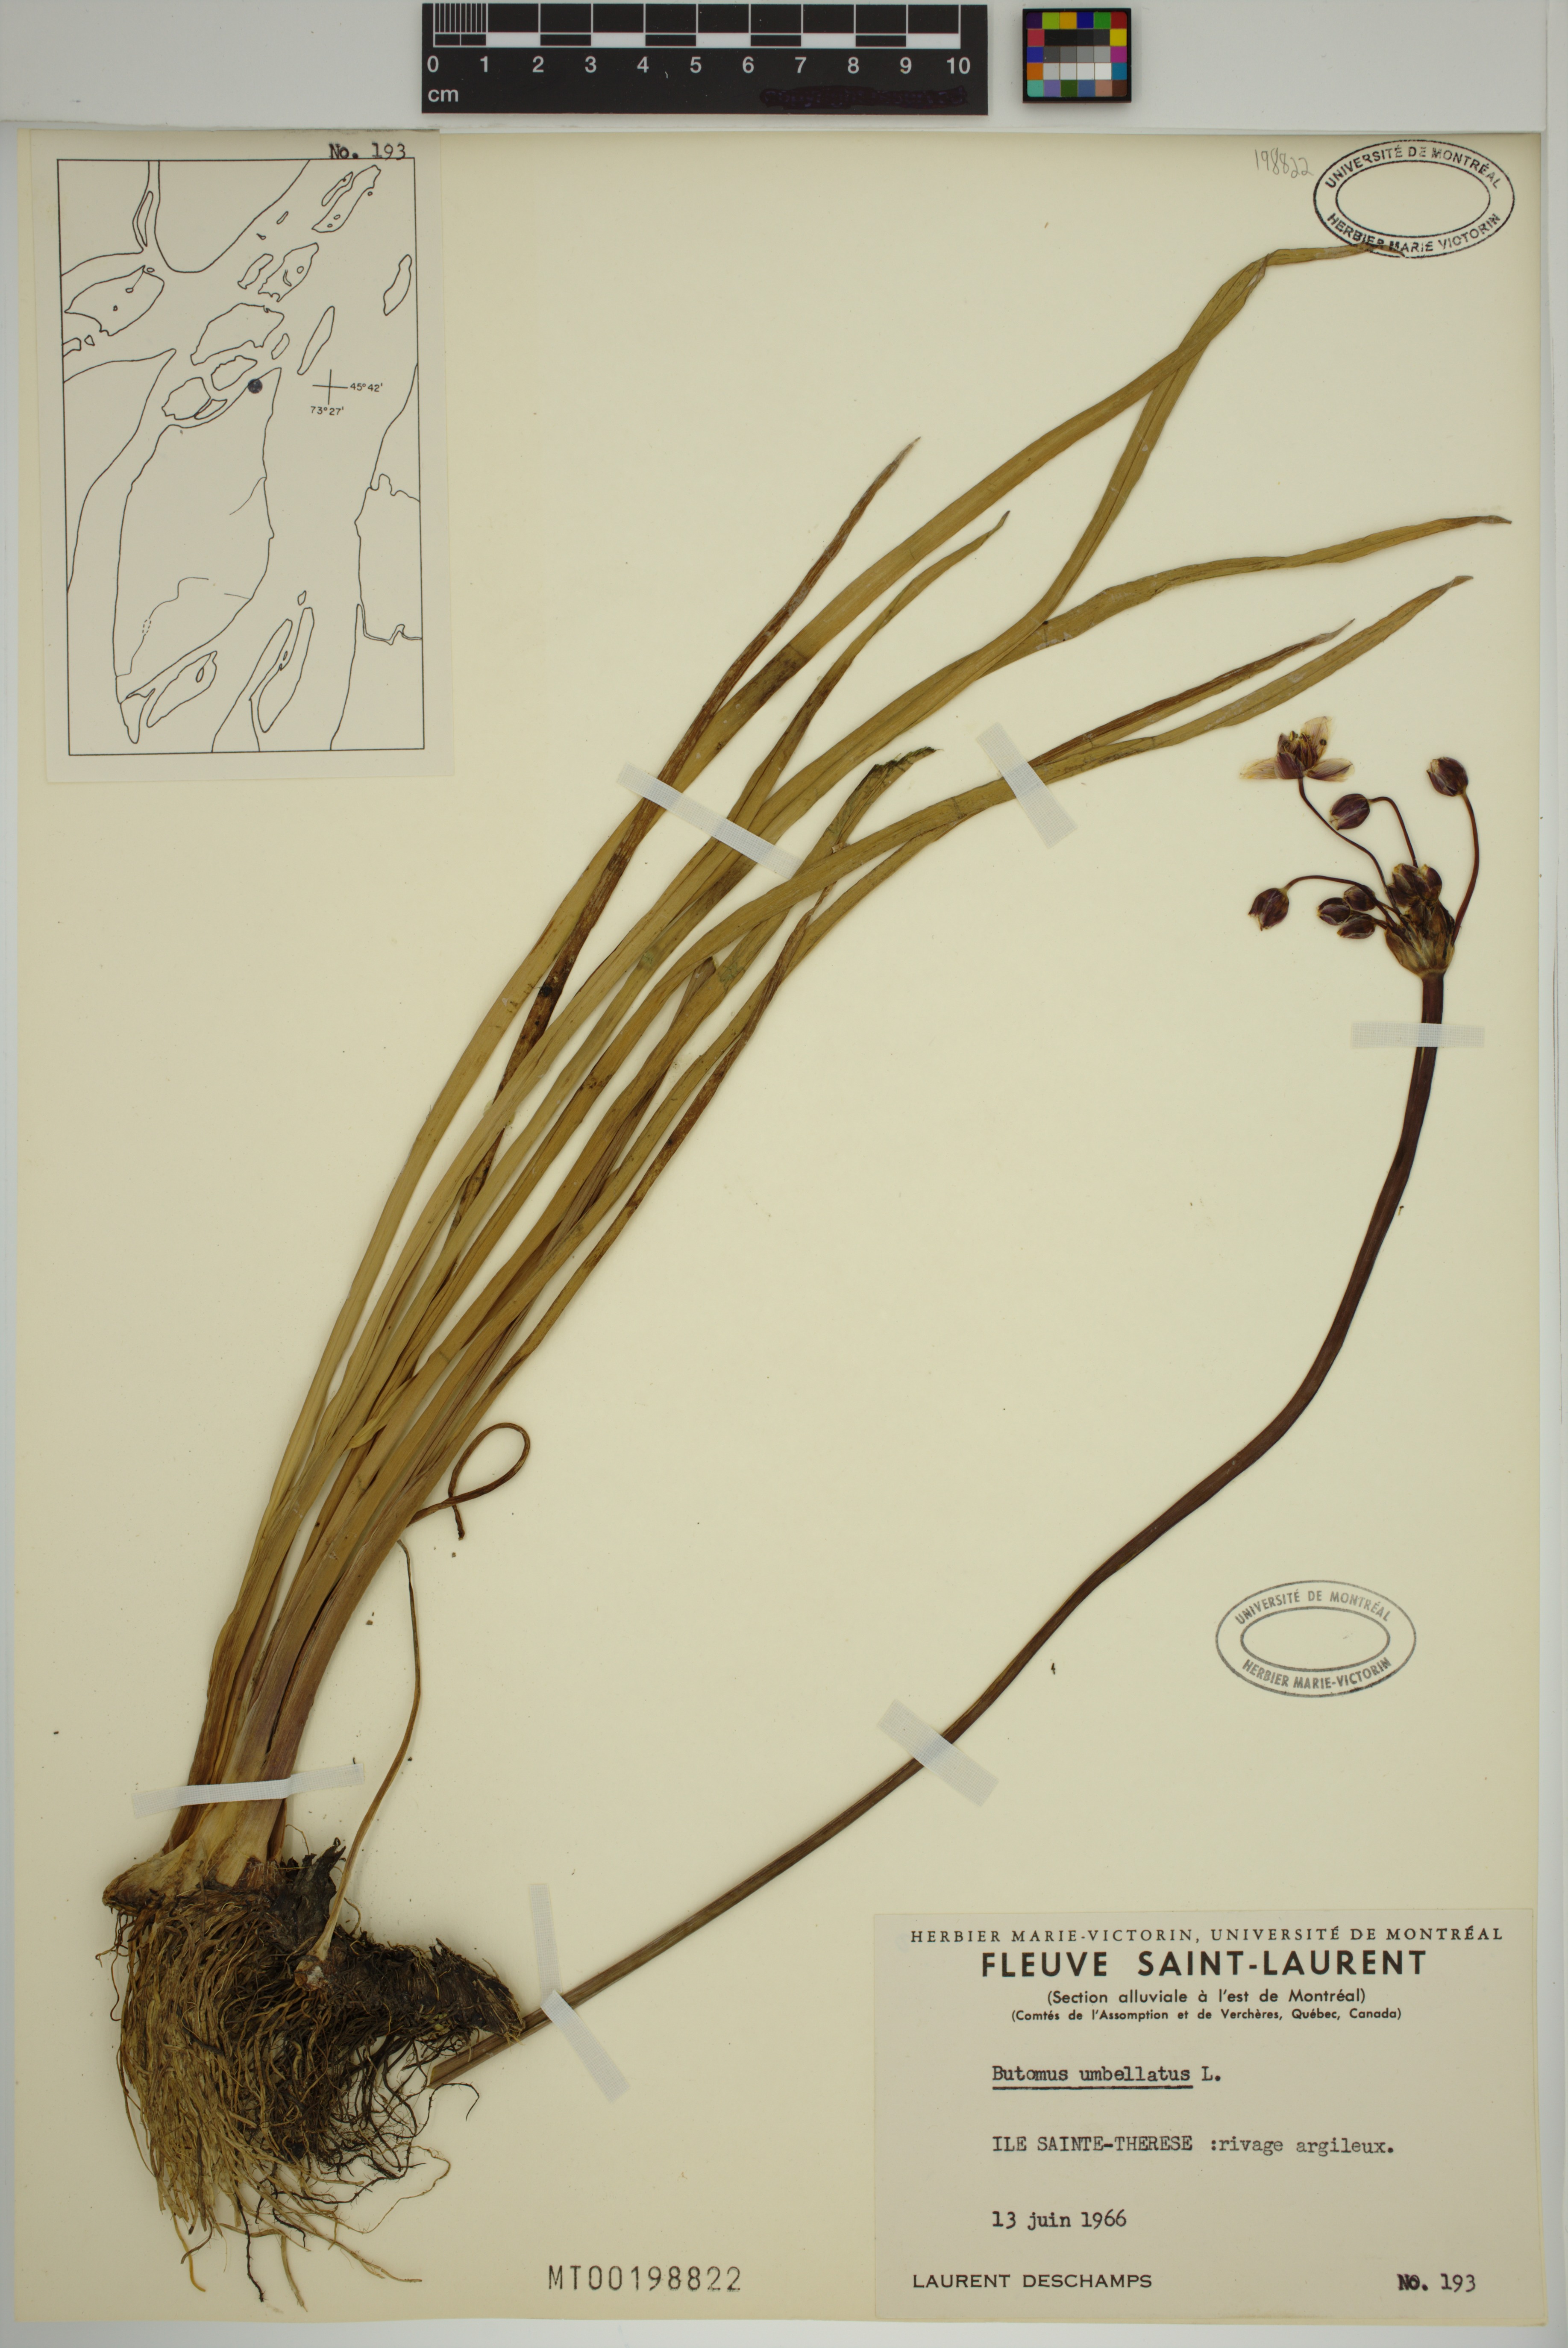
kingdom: Plantae
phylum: Tracheophyta
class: Liliopsida
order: Alismatales
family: Butomaceae
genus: Butomus
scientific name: Butomus umbellatus
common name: Flowering-rush
